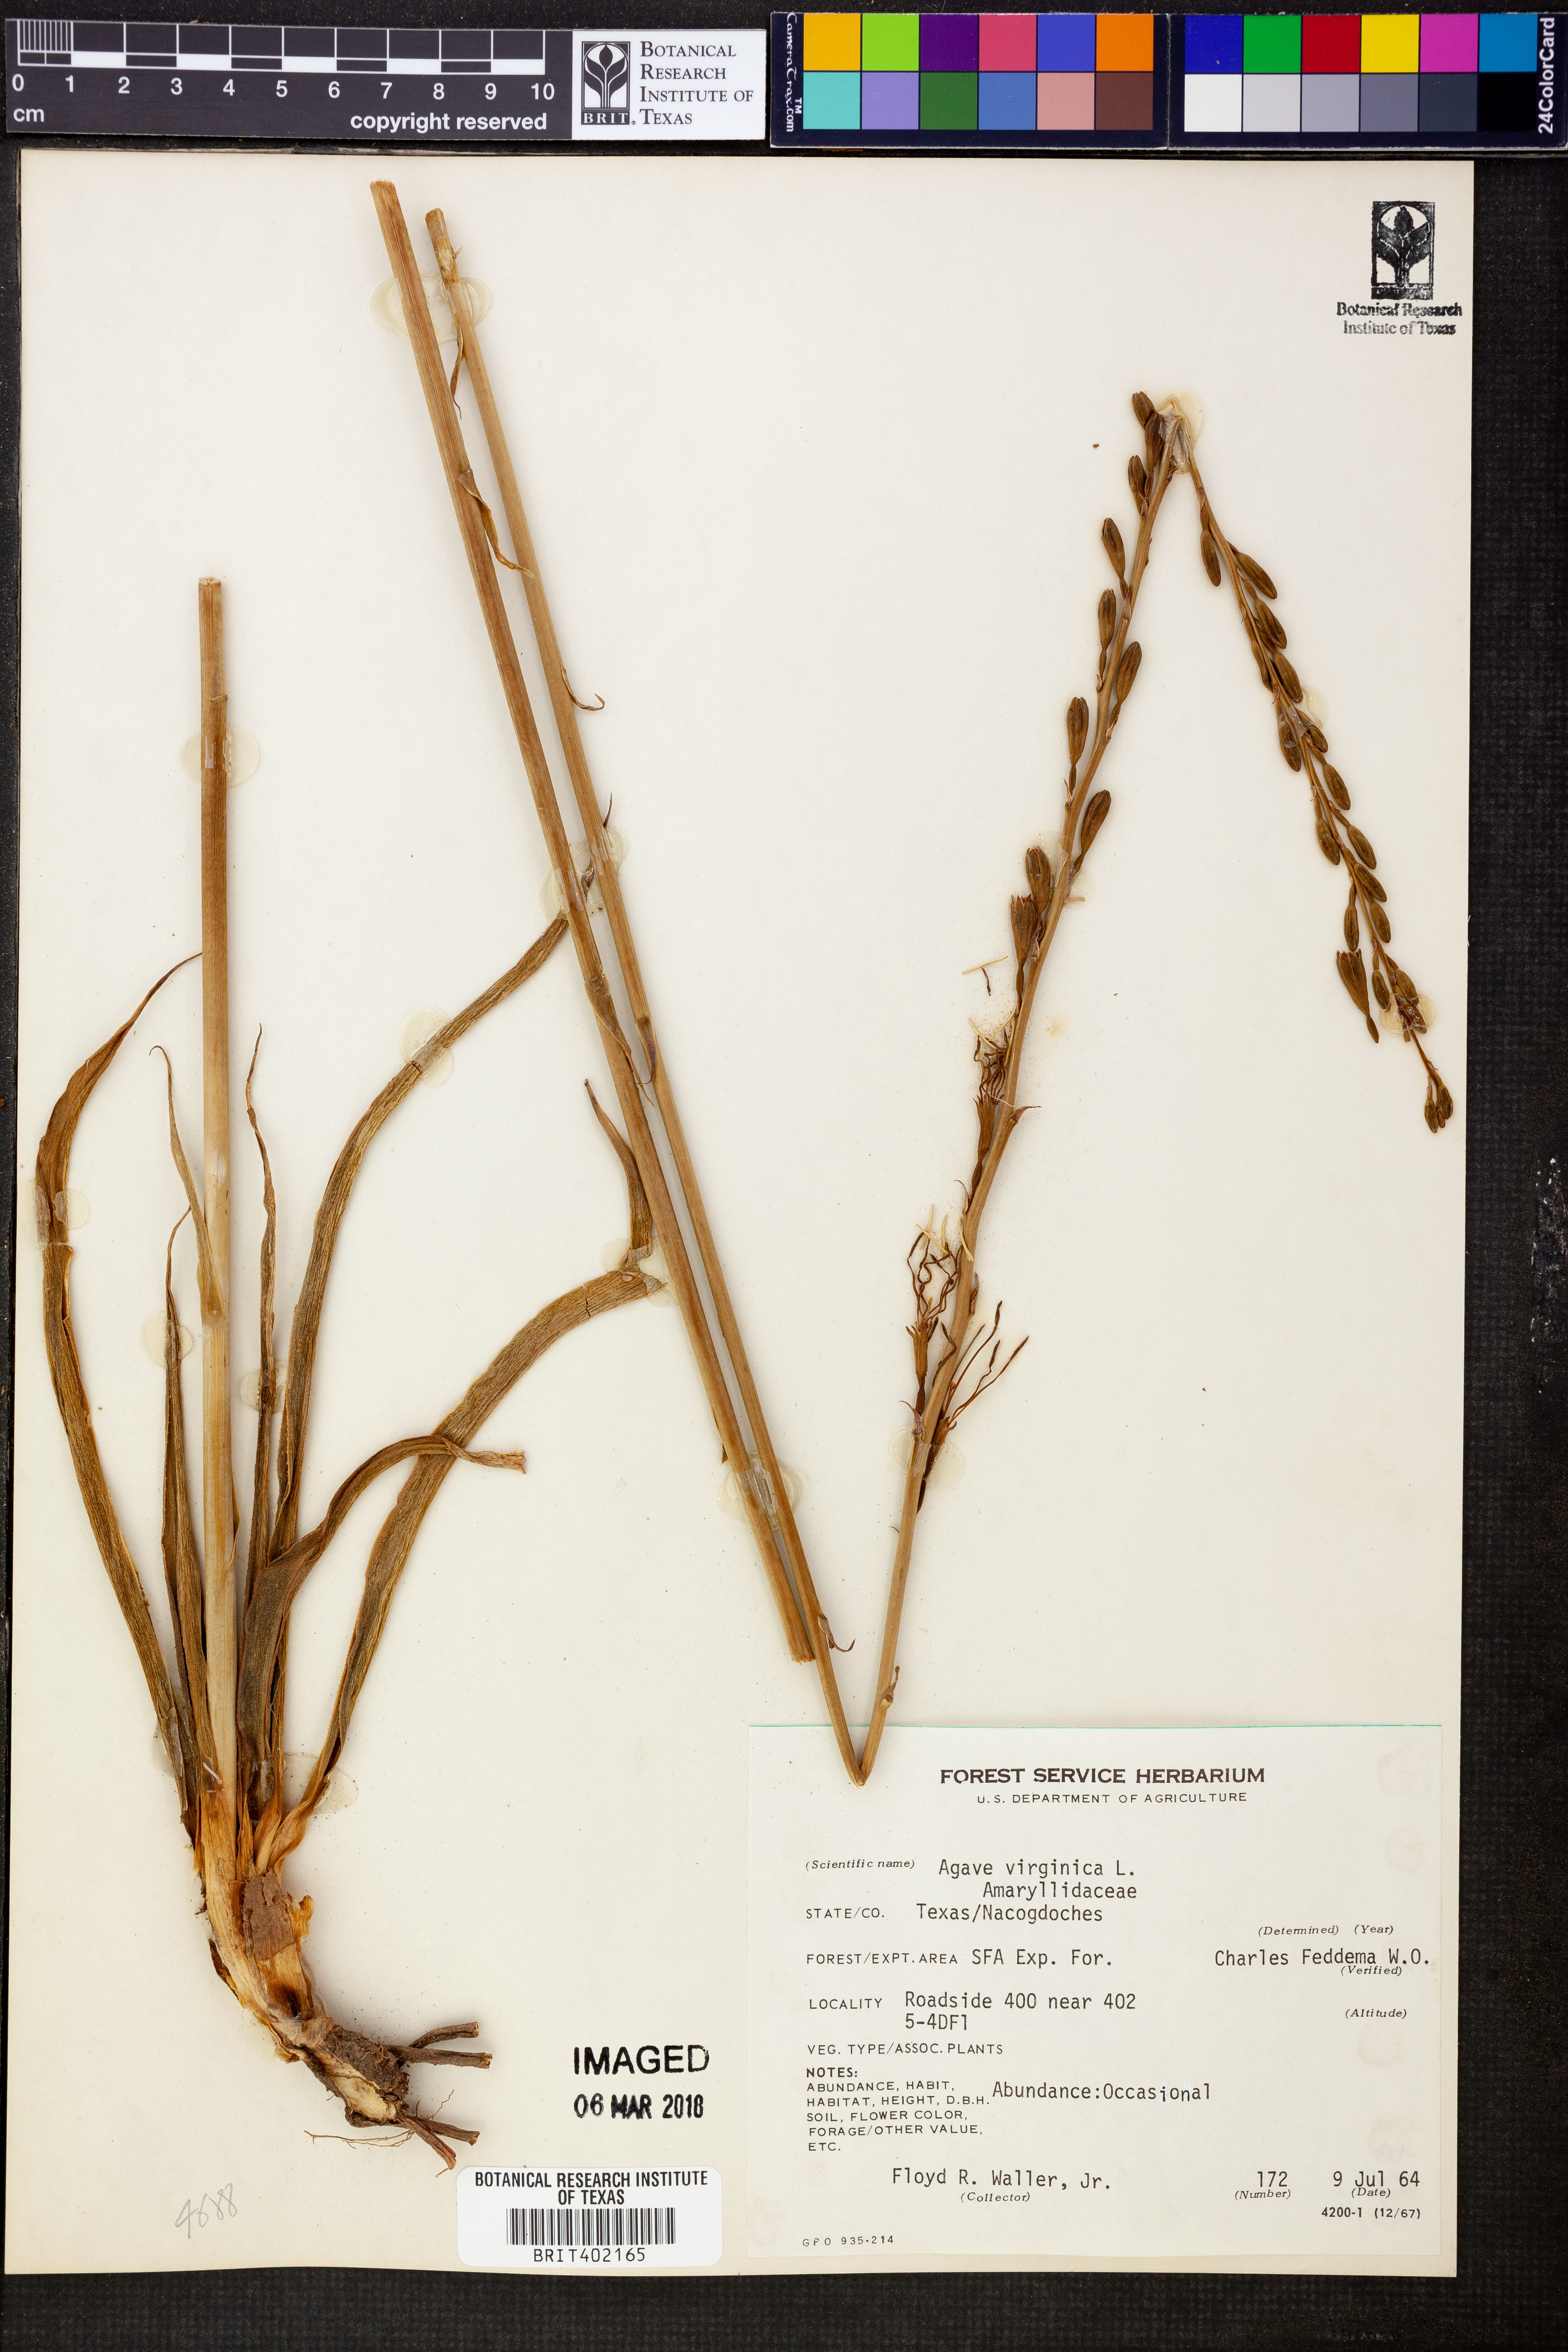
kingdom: Plantae
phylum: Tracheophyta
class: Liliopsida
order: Asparagales
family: Asparagaceae
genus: Agave
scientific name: Agave virginica
